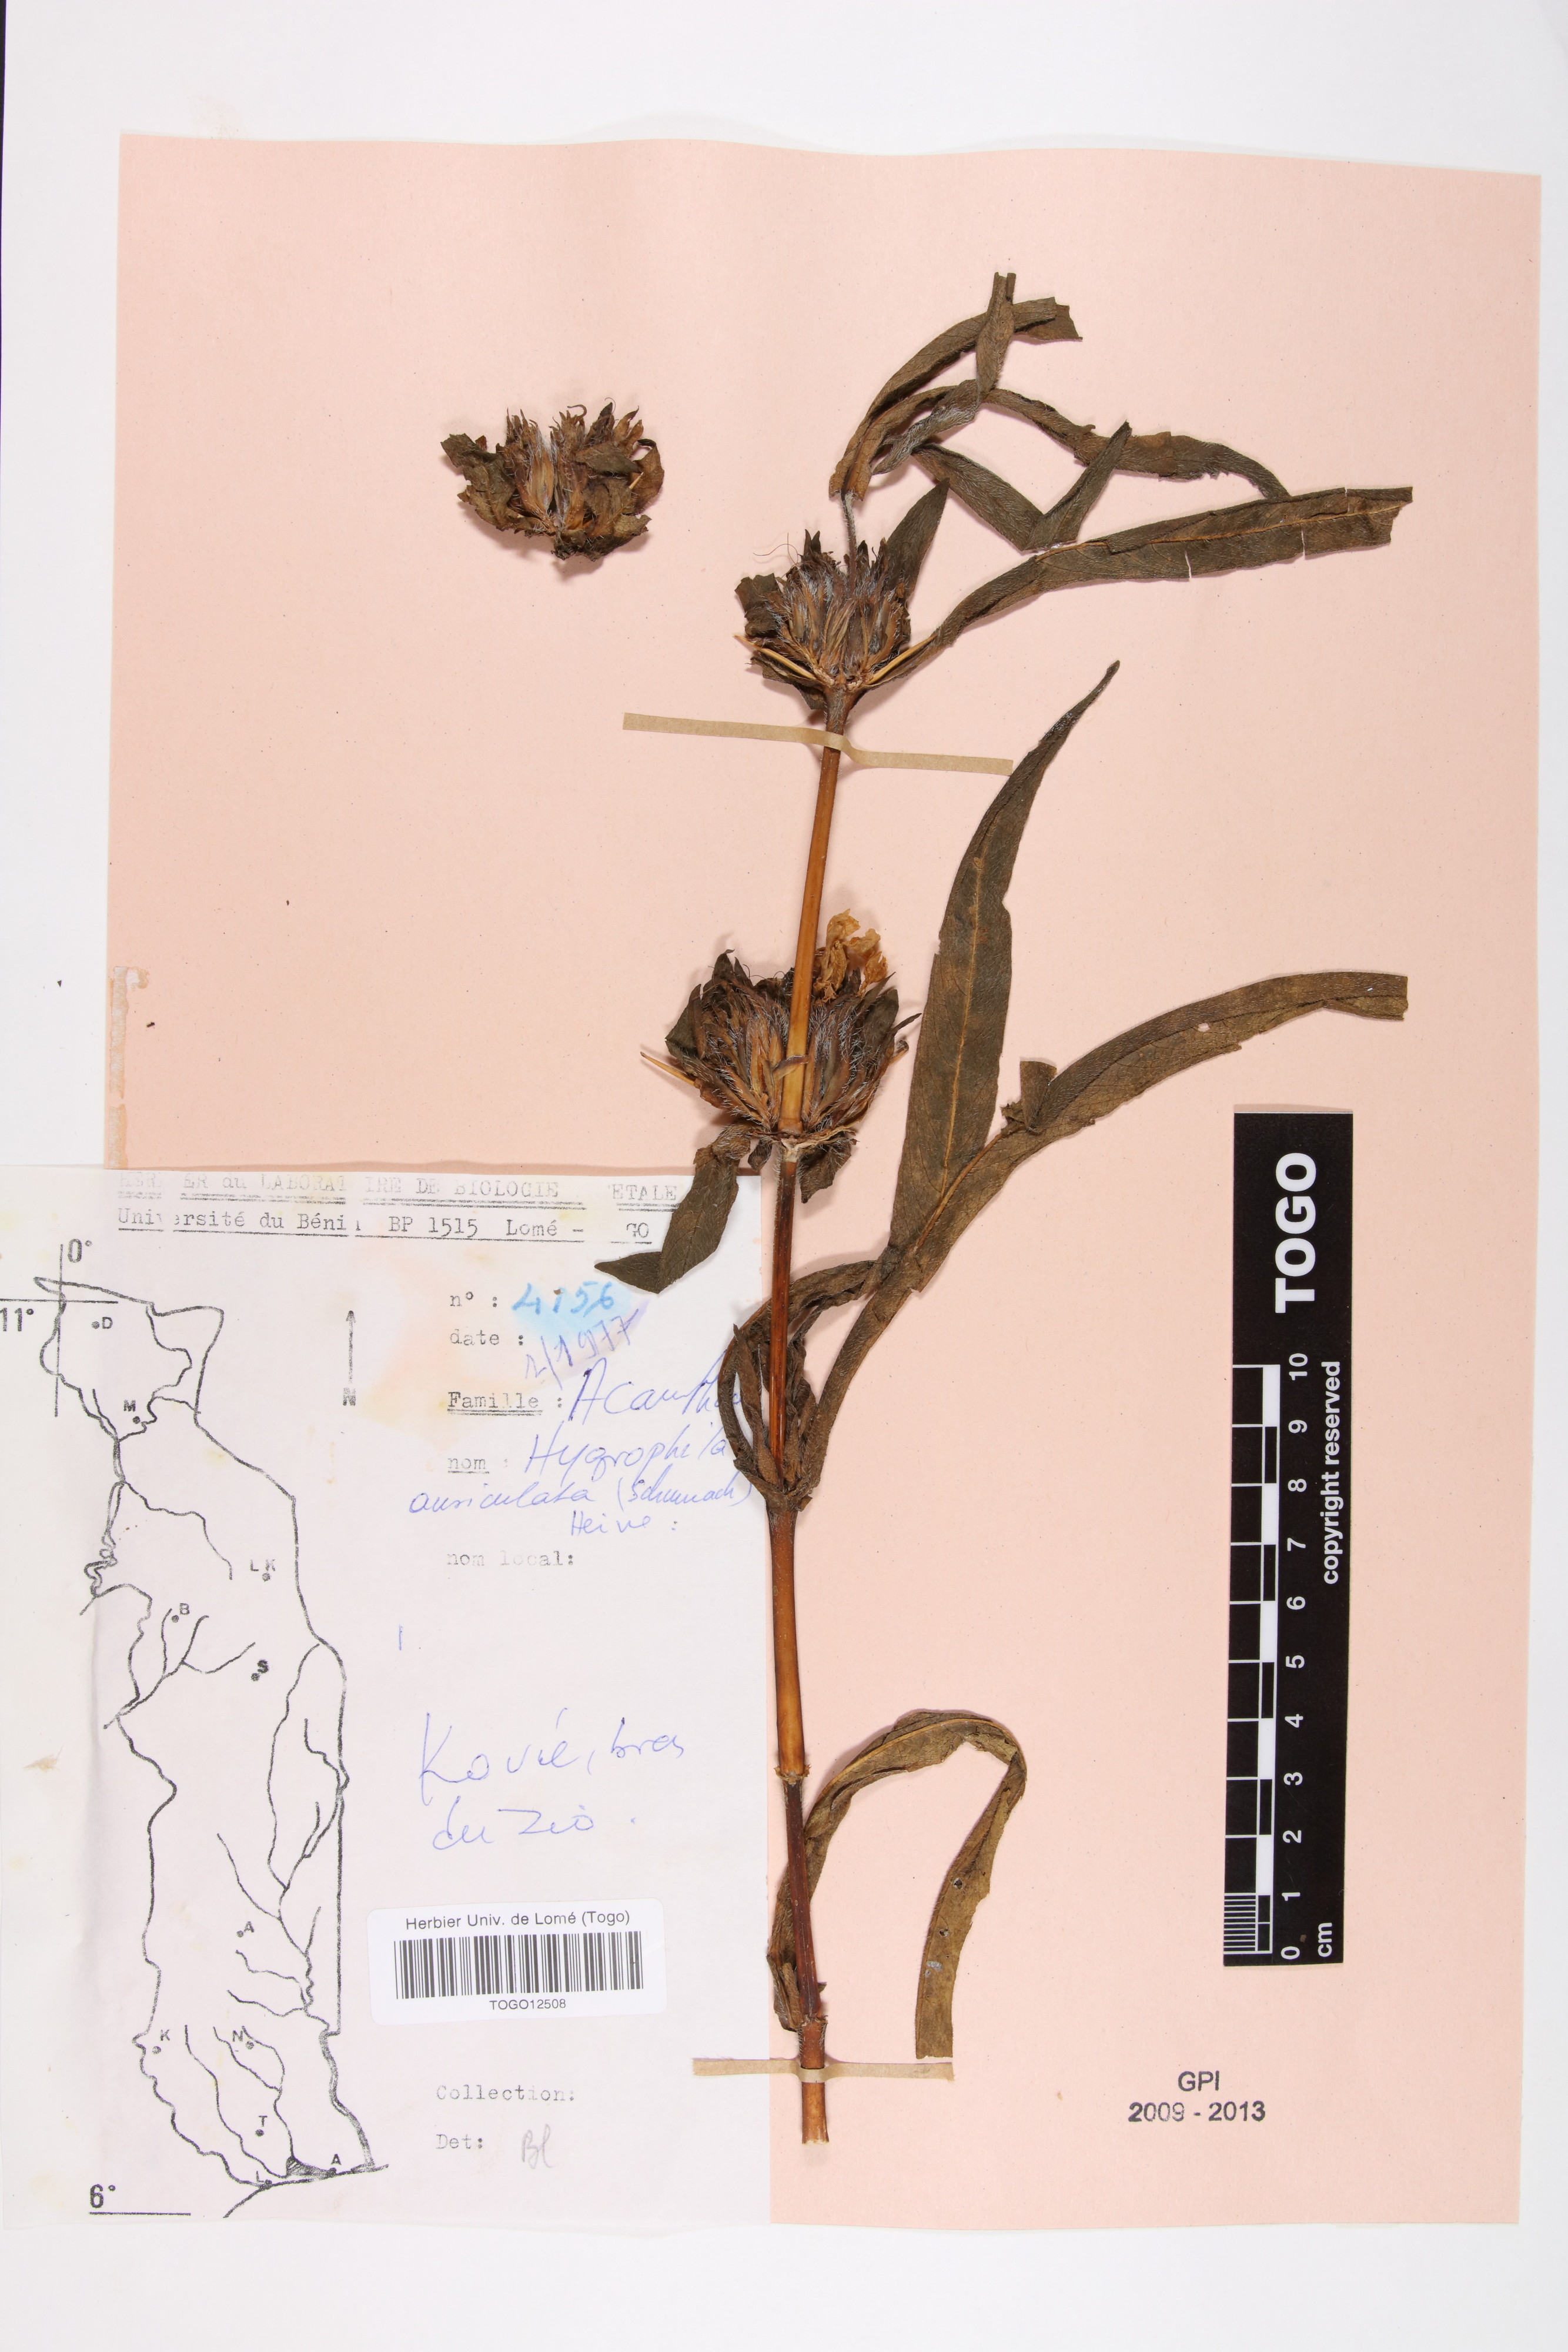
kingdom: Plantae
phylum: Tracheophyta
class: Magnoliopsida
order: Lamiales
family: Acanthaceae
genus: Hygrophila
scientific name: Hygrophila auriculata
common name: Hygrophila
